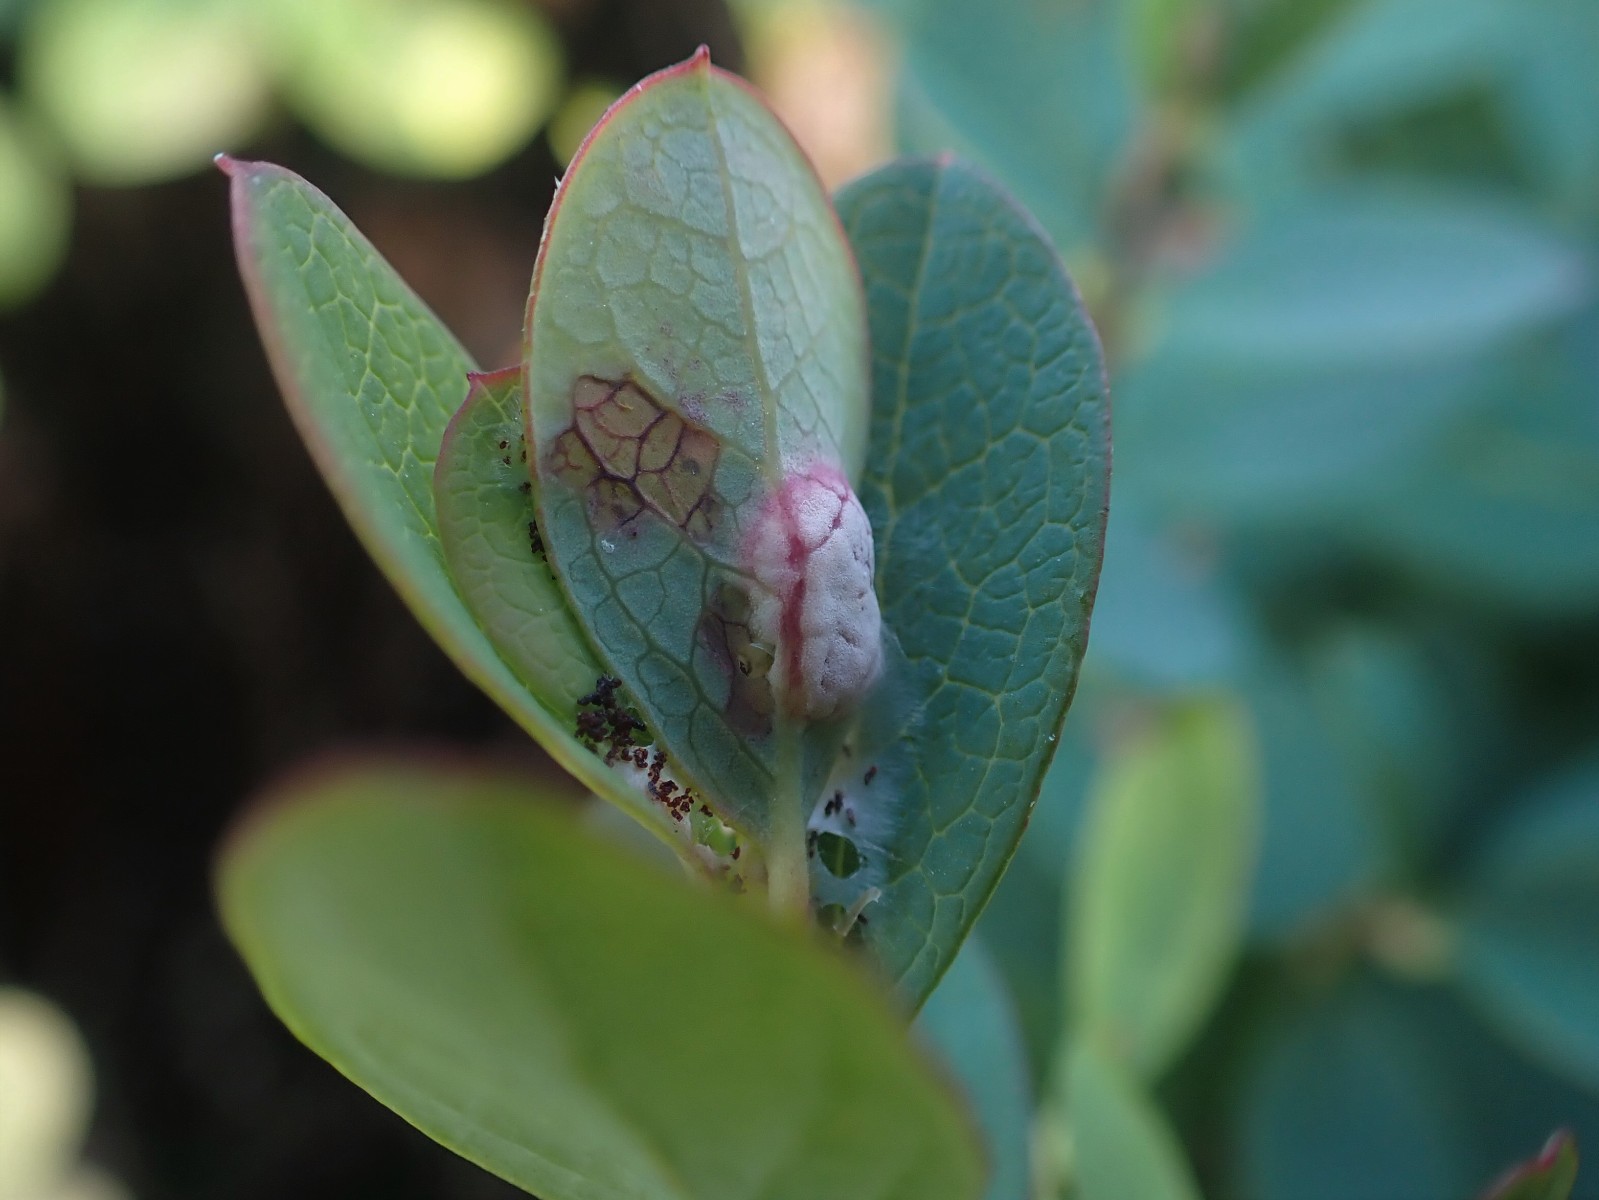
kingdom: Fungi
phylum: Basidiomycota
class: Exobasidiomycetes
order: Exobasidiales
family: Exobasidiaceae
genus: Exobasidium
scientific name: Exobasidium pachysporum
